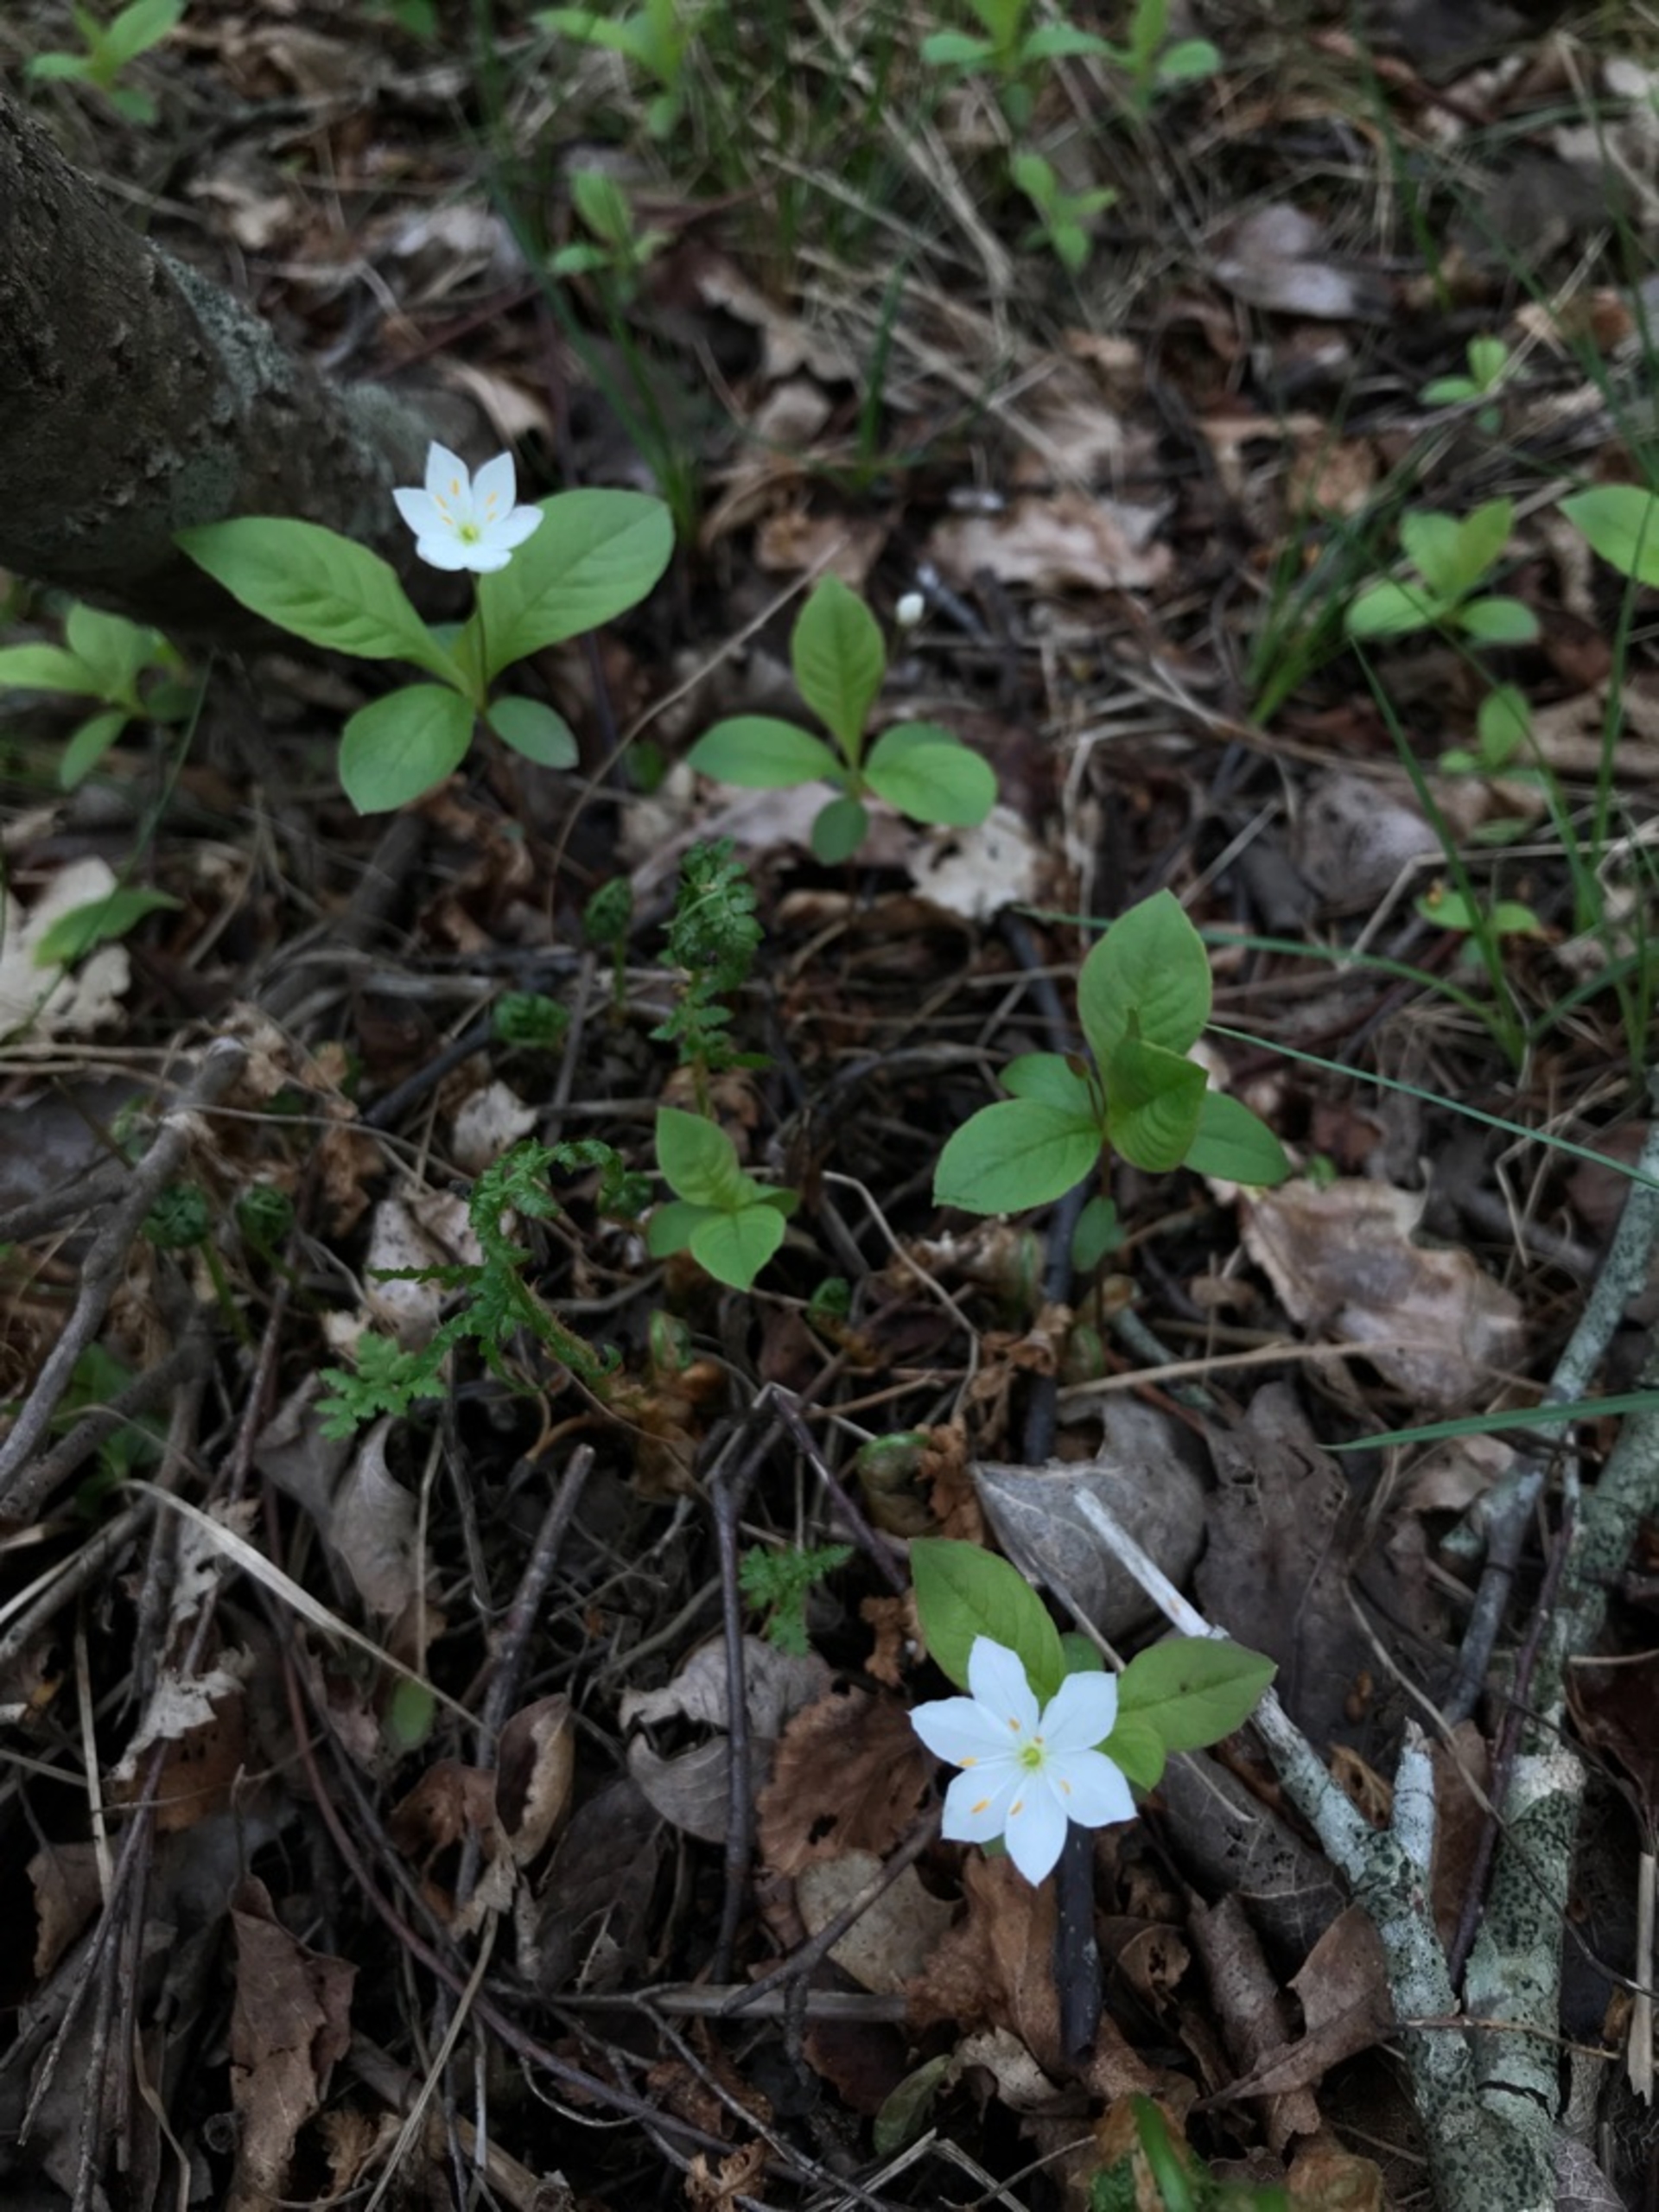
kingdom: Plantae
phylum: Tracheophyta
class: Magnoliopsida
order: Ericales
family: Primulaceae
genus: Lysimachia
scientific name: Lysimachia europaea
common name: Skovstjerne
